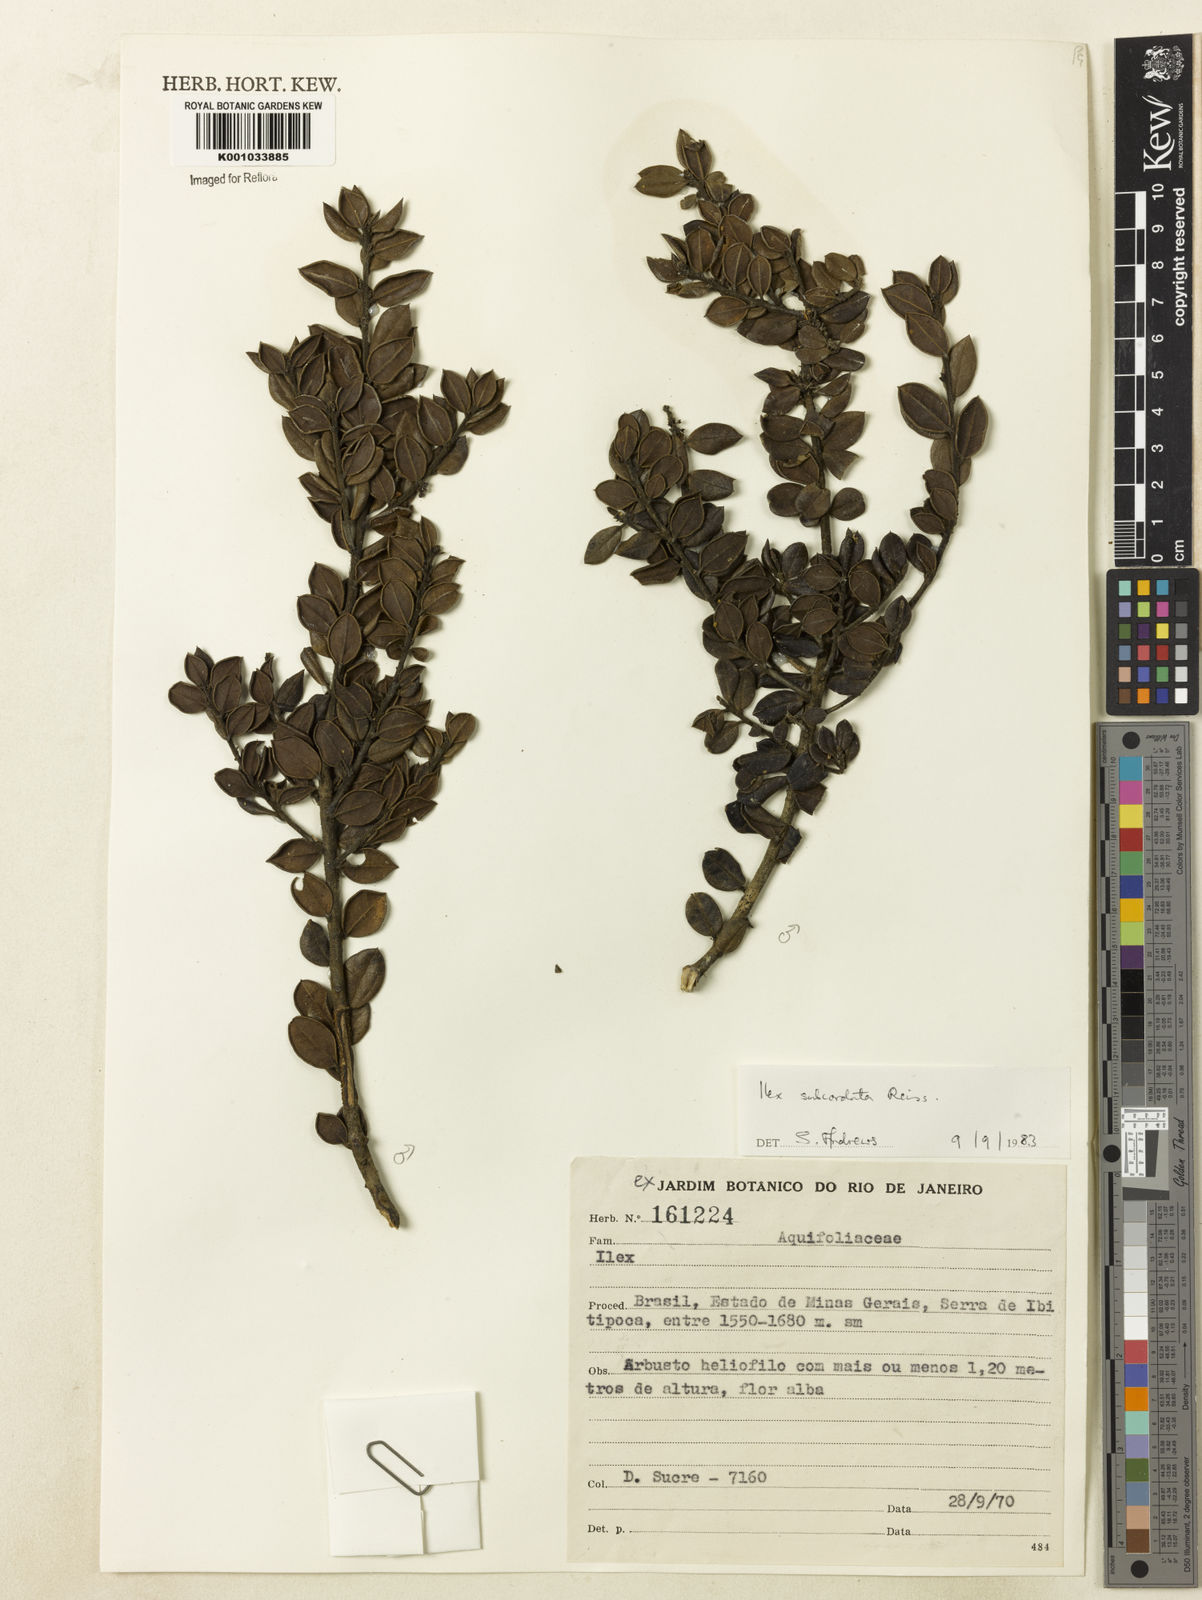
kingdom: Plantae
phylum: Tracheophyta
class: Magnoliopsida
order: Aquifoliales
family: Aquifoliaceae
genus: Ilex
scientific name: Ilex subcordata
